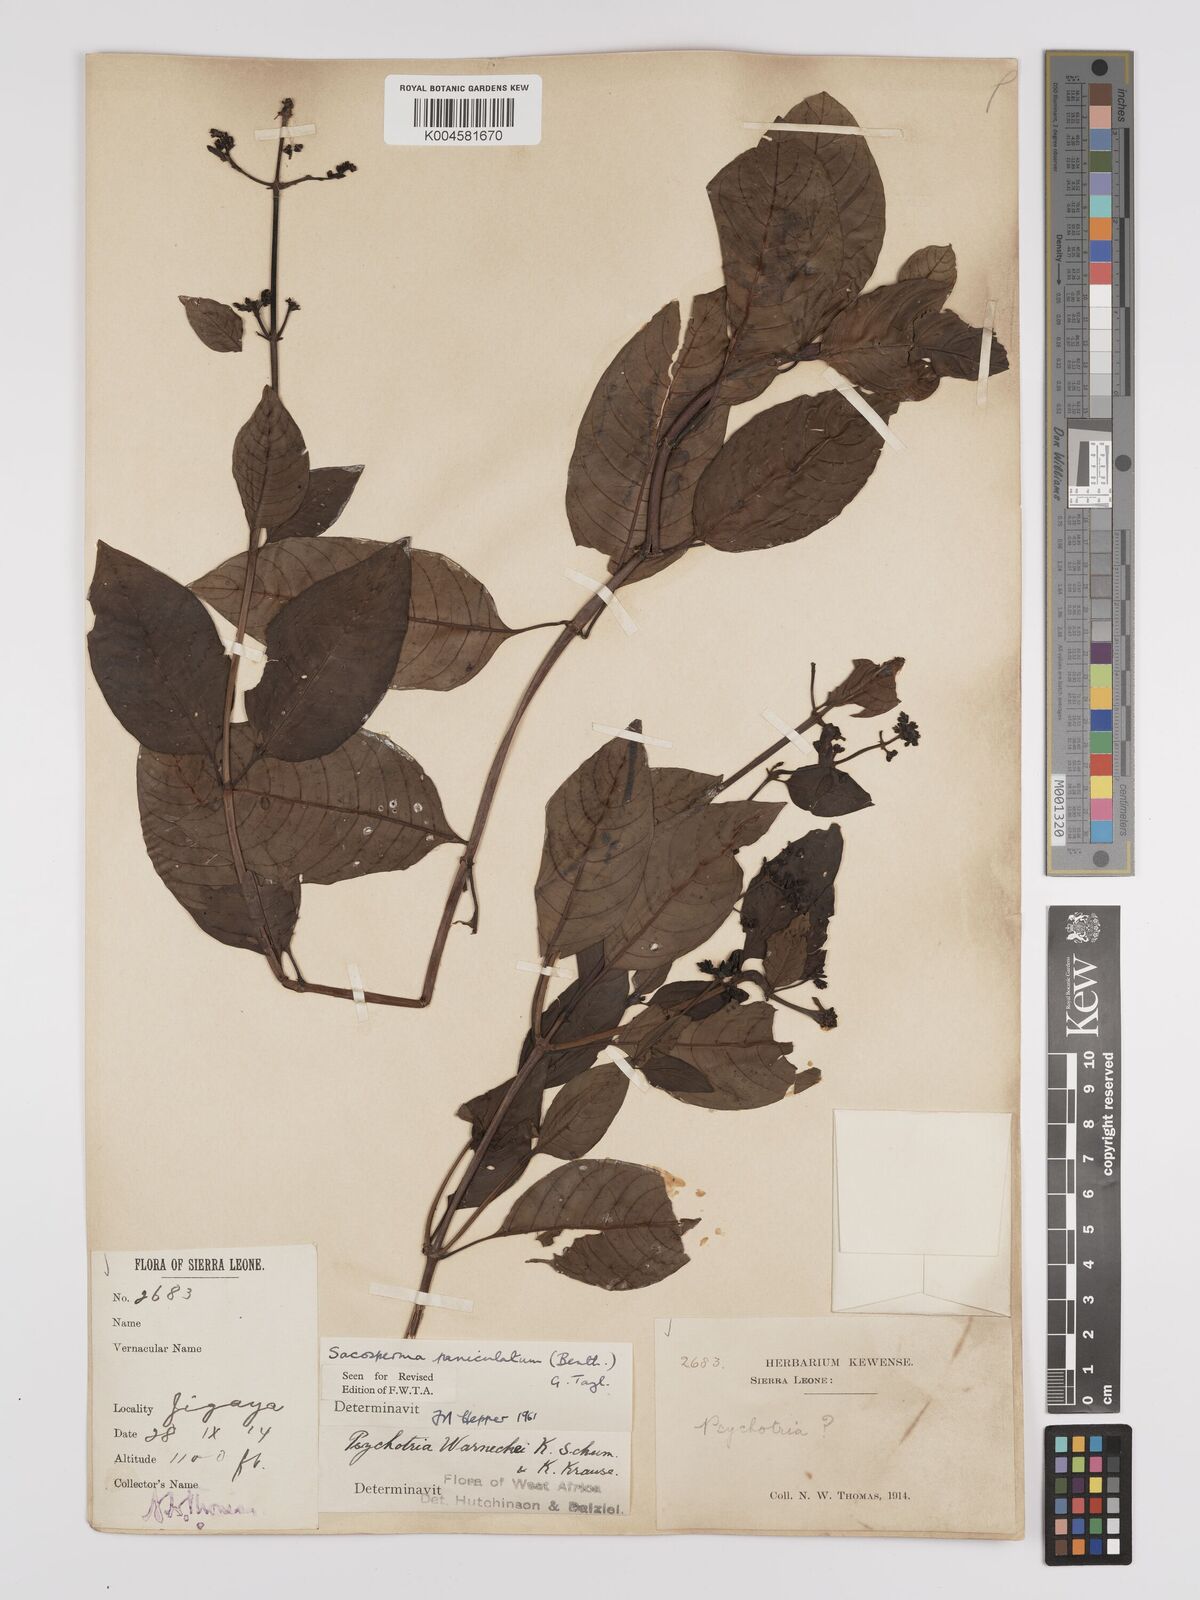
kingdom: Plantae
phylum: Tracheophyta
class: Magnoliopsida
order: Gentianales
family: Rubiaceae
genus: Sacosperma
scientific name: Sacosperma paniculatum
